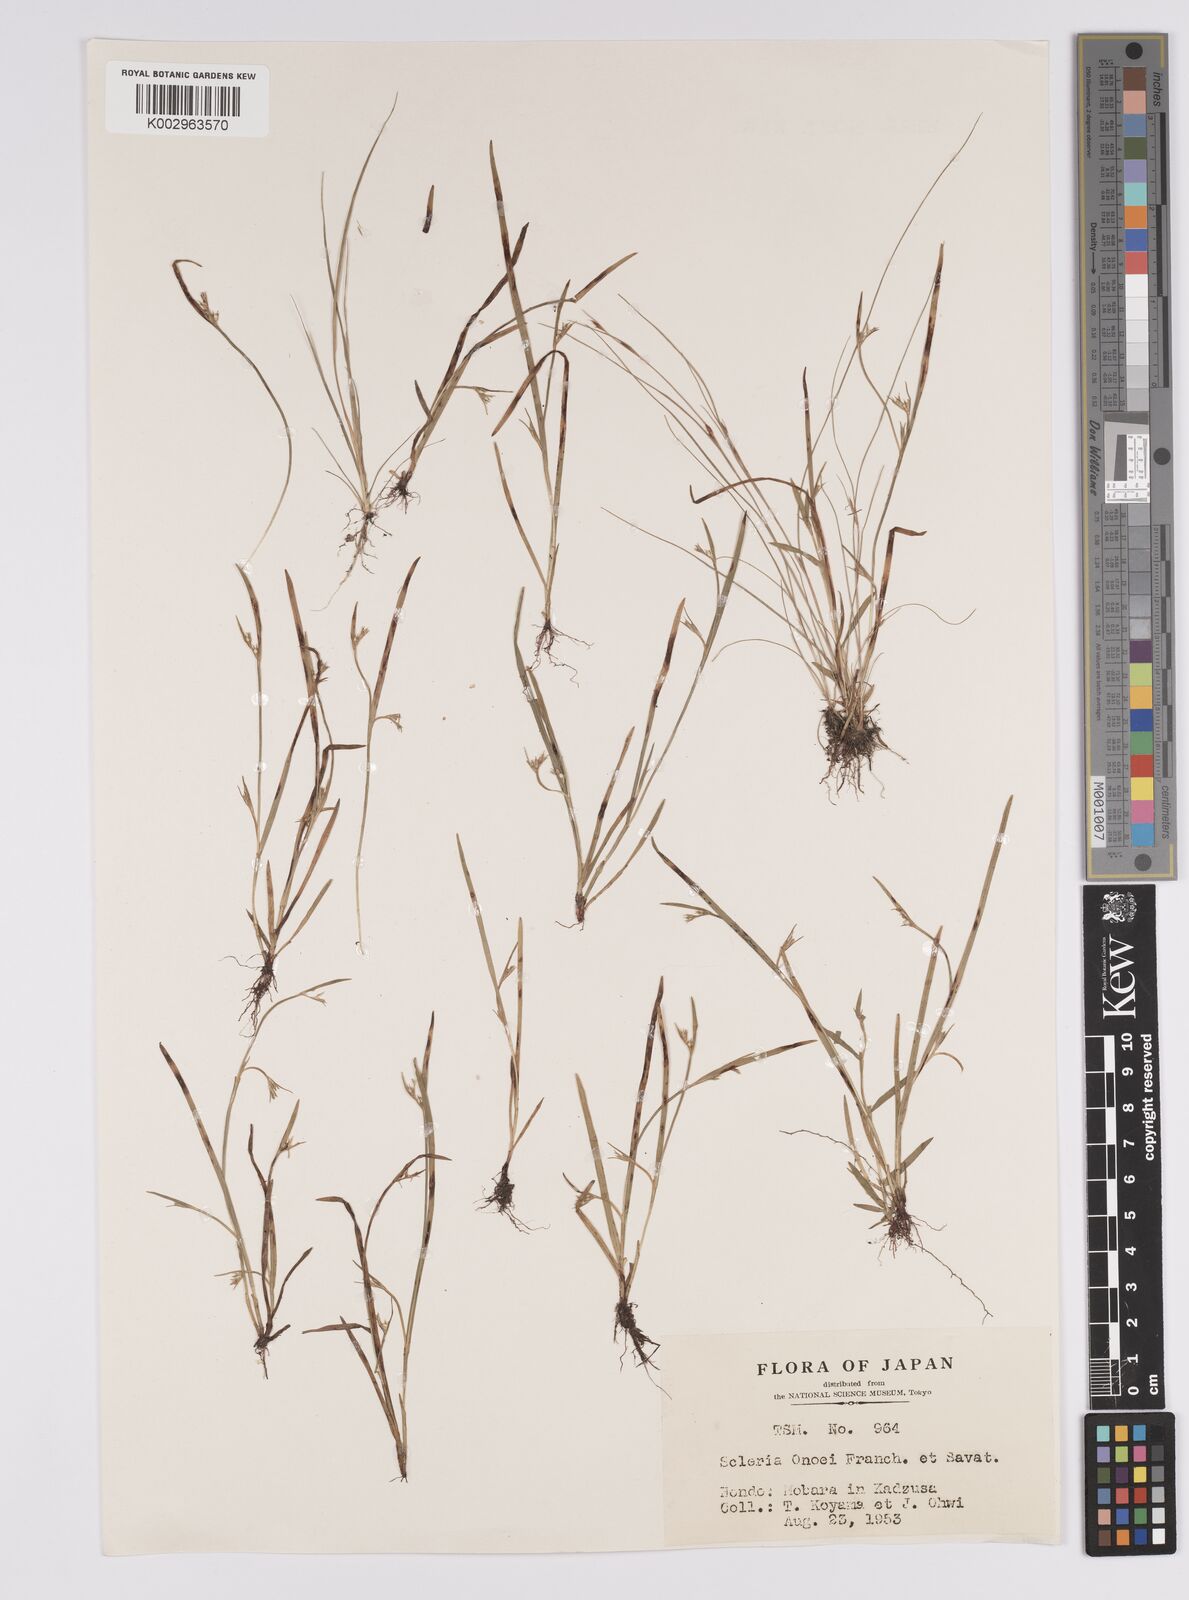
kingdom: Plantae
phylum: Tracheophyta
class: Liliopsida
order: Poales
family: Cyperaceae
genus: Scleria
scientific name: Scleria rugosa
